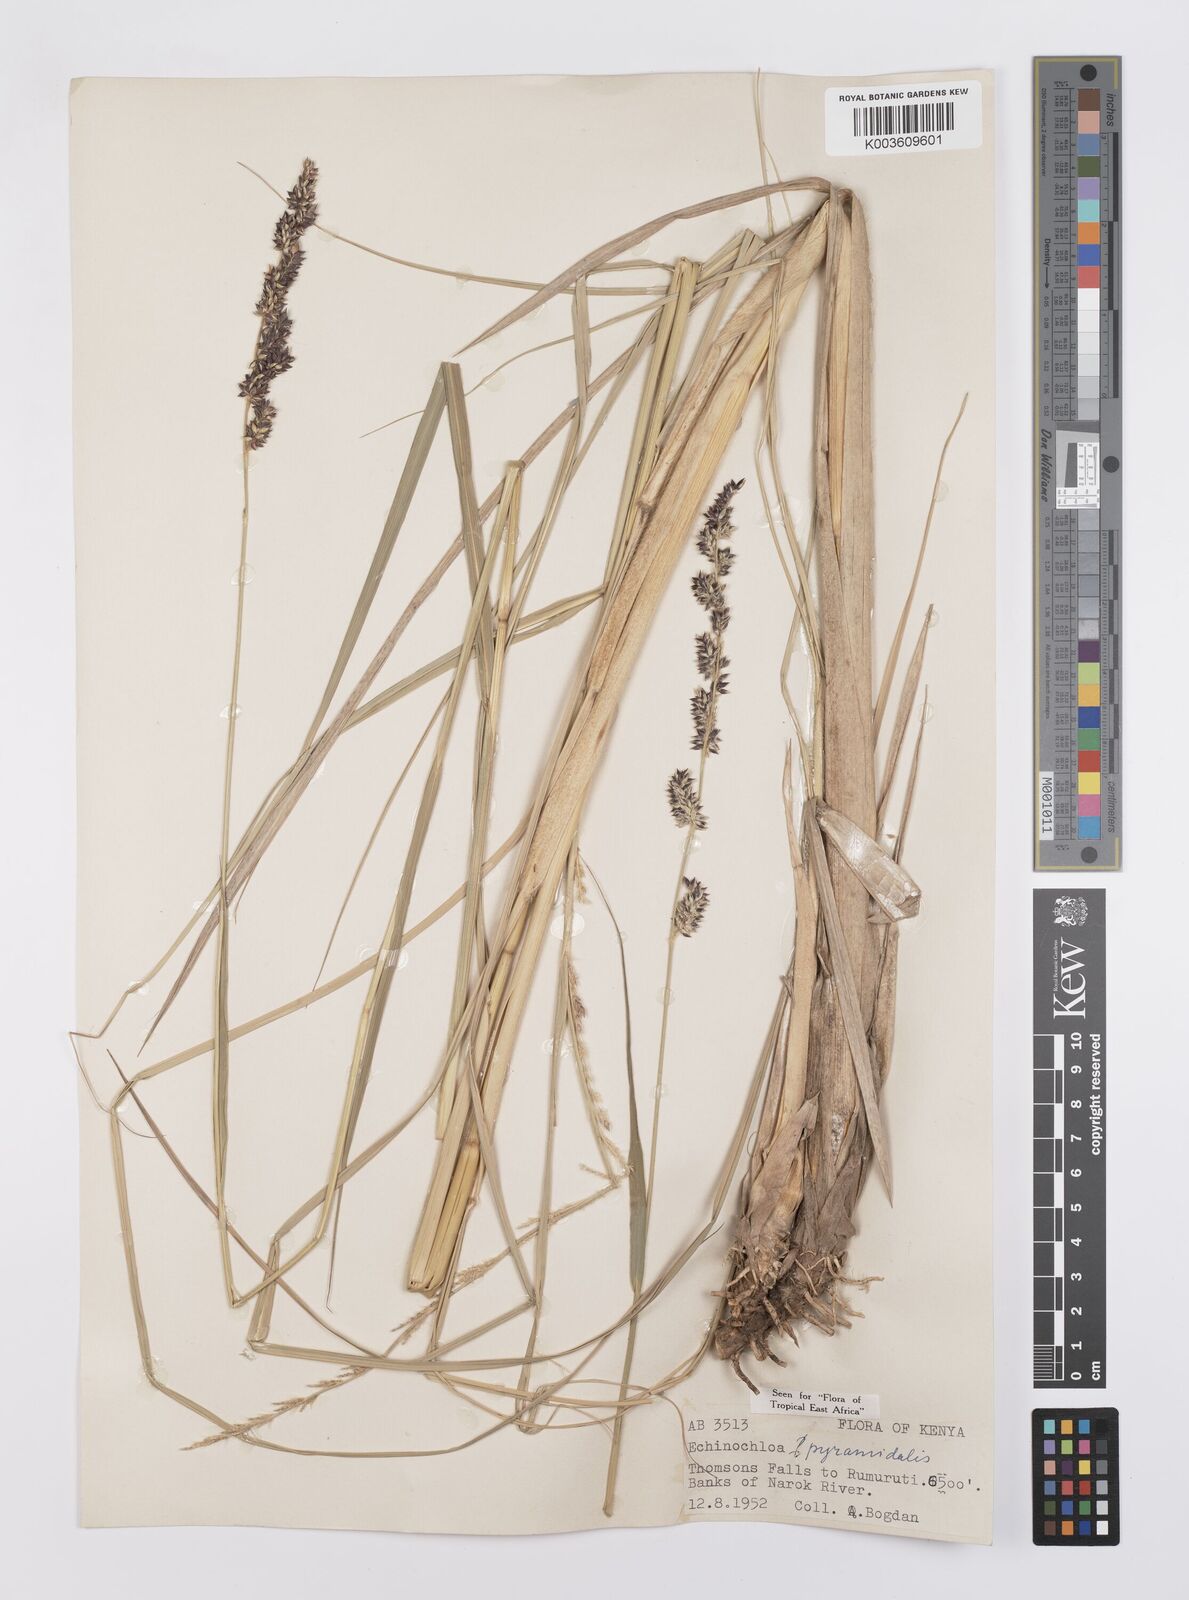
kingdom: Plantae
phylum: Tracheophyta
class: Liliopsida
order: Poales
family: Poaceae
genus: Echinochloa
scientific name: Echinochloa pyramidalis
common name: Antelope grass
